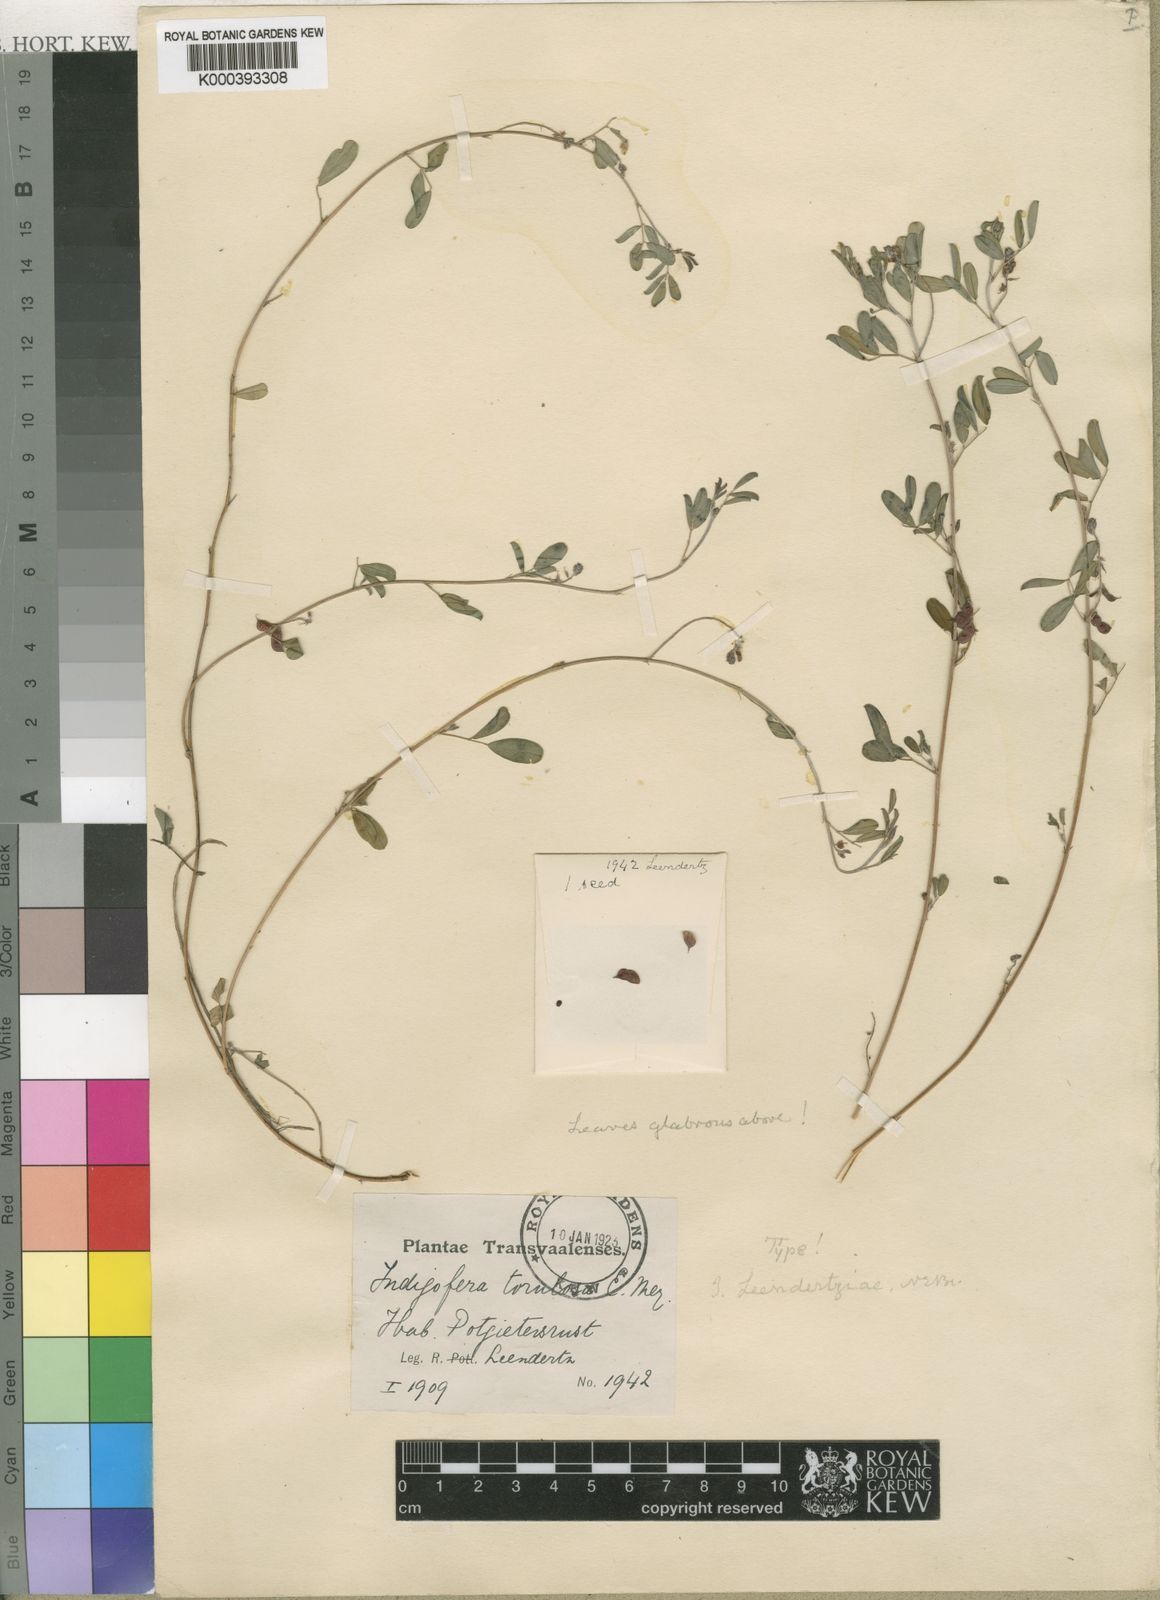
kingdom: Plantae
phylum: Tracheophyta
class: Magnoliopsida
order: Fabales
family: Fabaceae
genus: Indigofera
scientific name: Indigofera leendertziae
